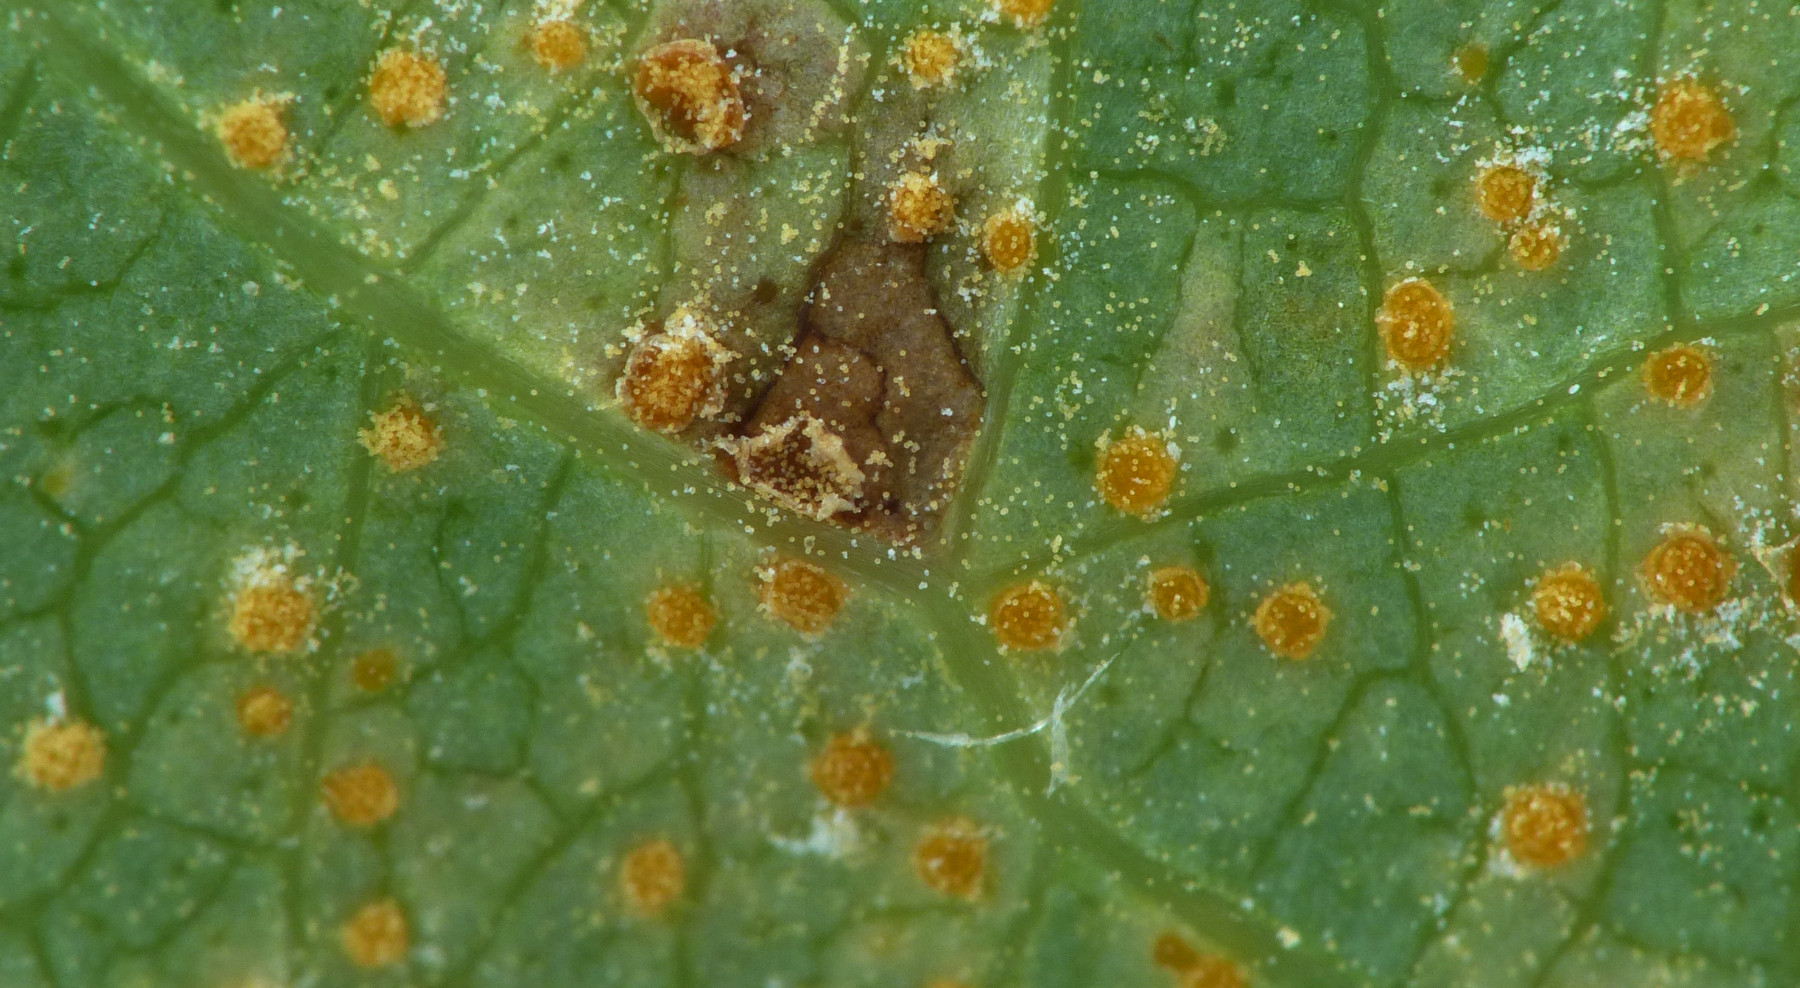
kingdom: Fungi
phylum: Basidiomycota
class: Pucciniomycetes
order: Pucciniales
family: Melampsoraceae
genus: Melampsora
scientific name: Melampsora
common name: skorperust
